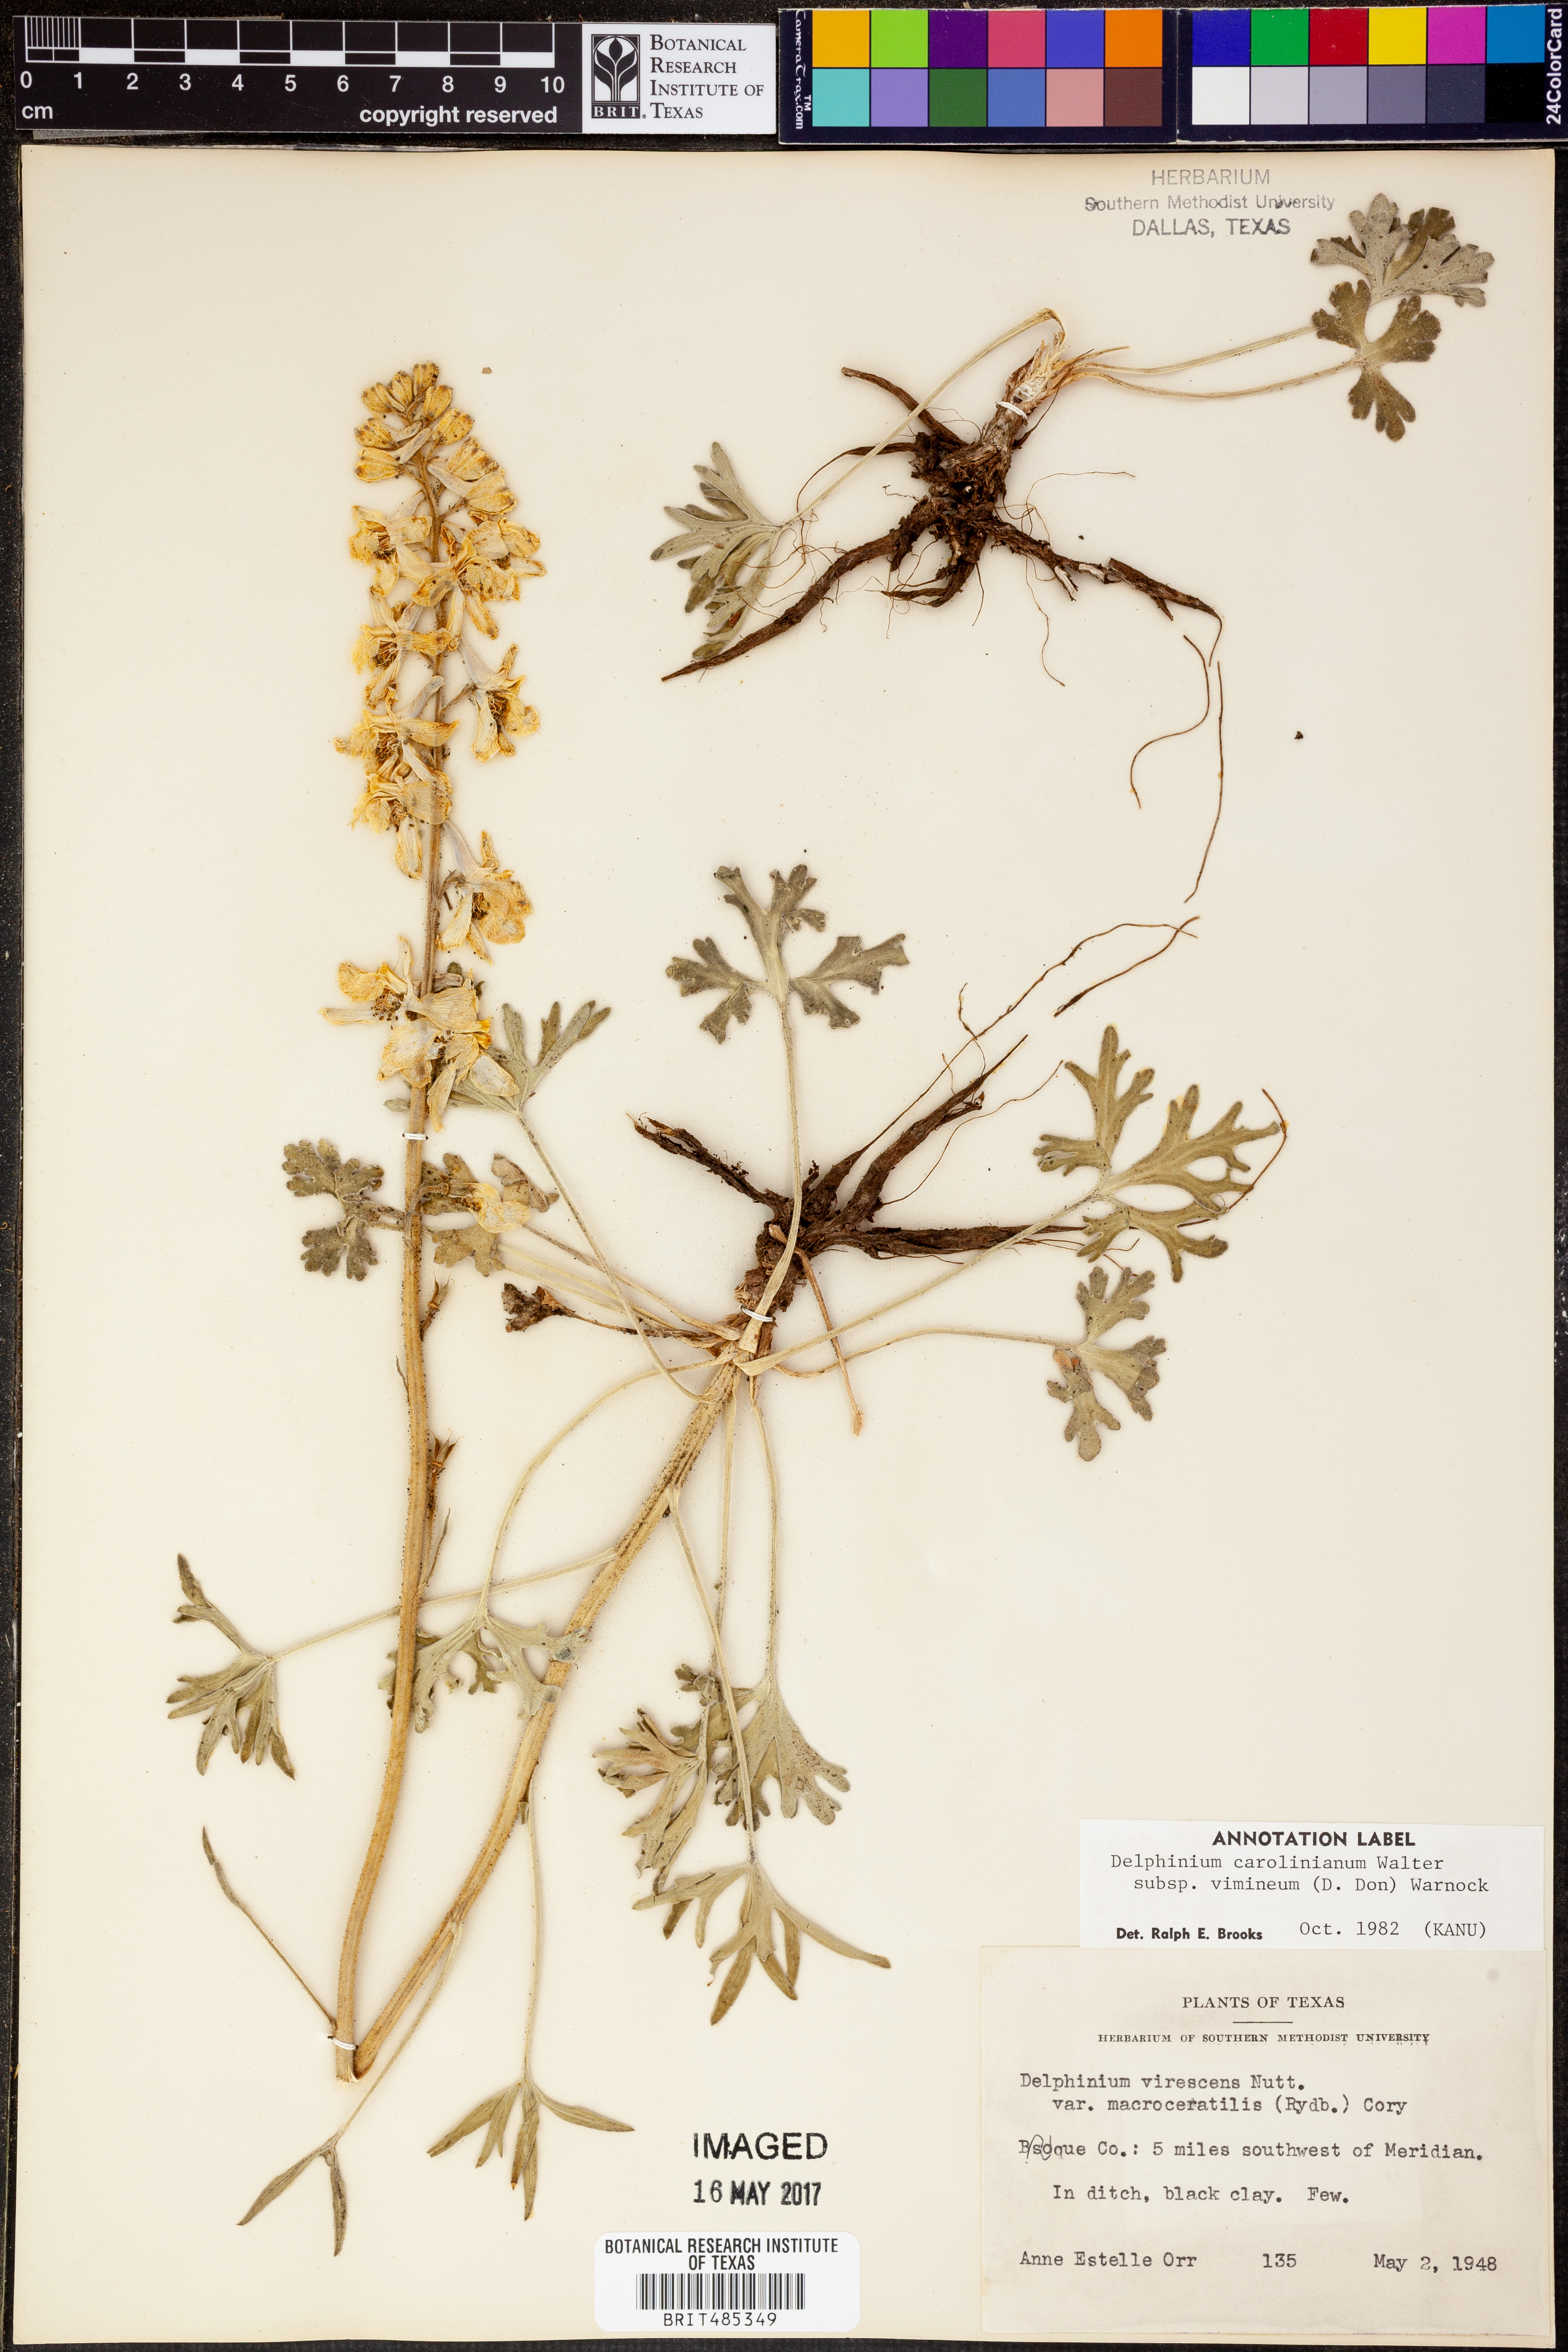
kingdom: Plantae
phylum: Tracheophyta
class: Magnoliopsida
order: Ranunculales
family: Ranunculaceae
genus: Delphinium
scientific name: Delphinium carolinianum
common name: Carolina larkspur
